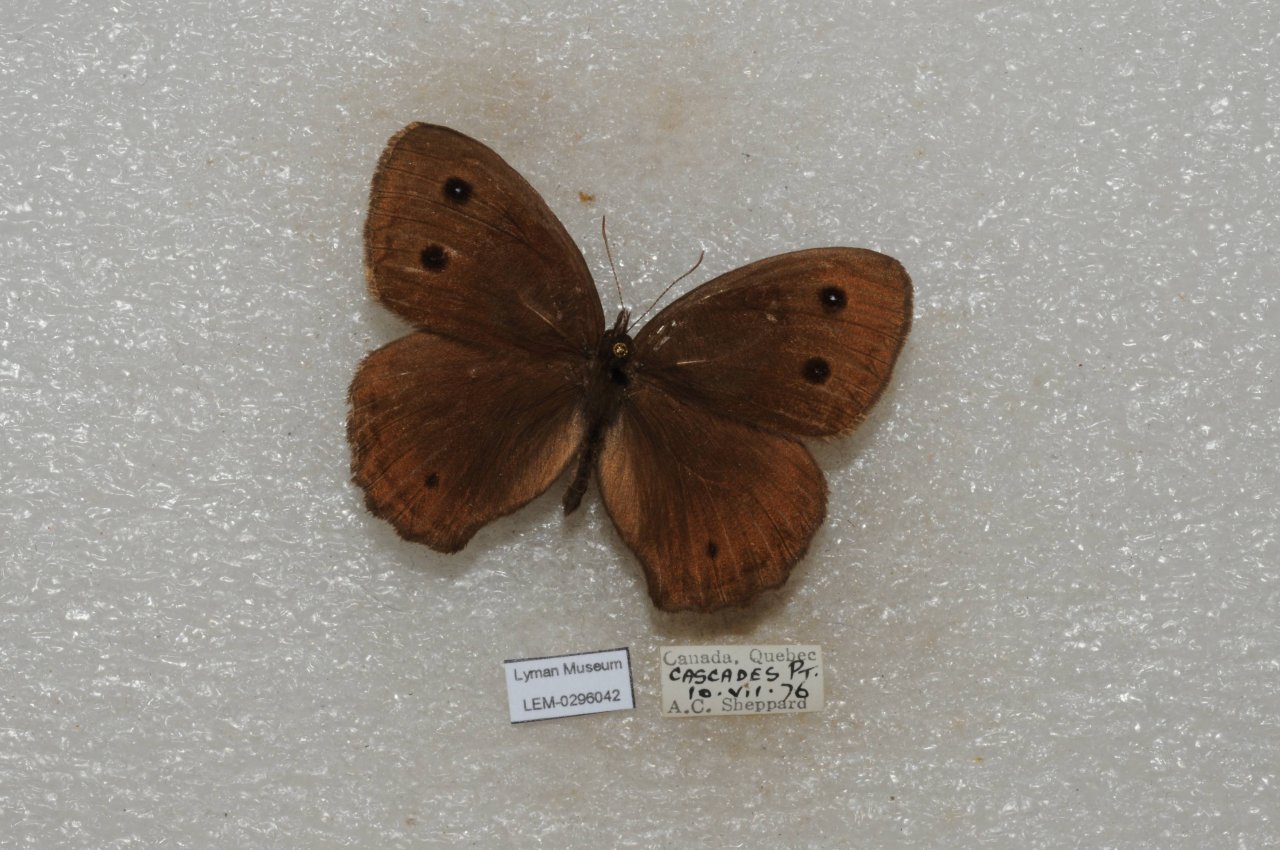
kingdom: Animalia
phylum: Arthropoda
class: Insecta
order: Lepidoptera
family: Nymphalidae
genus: Cercyonis
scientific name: Cercyonis pegala
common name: Common Wood-Nymph
